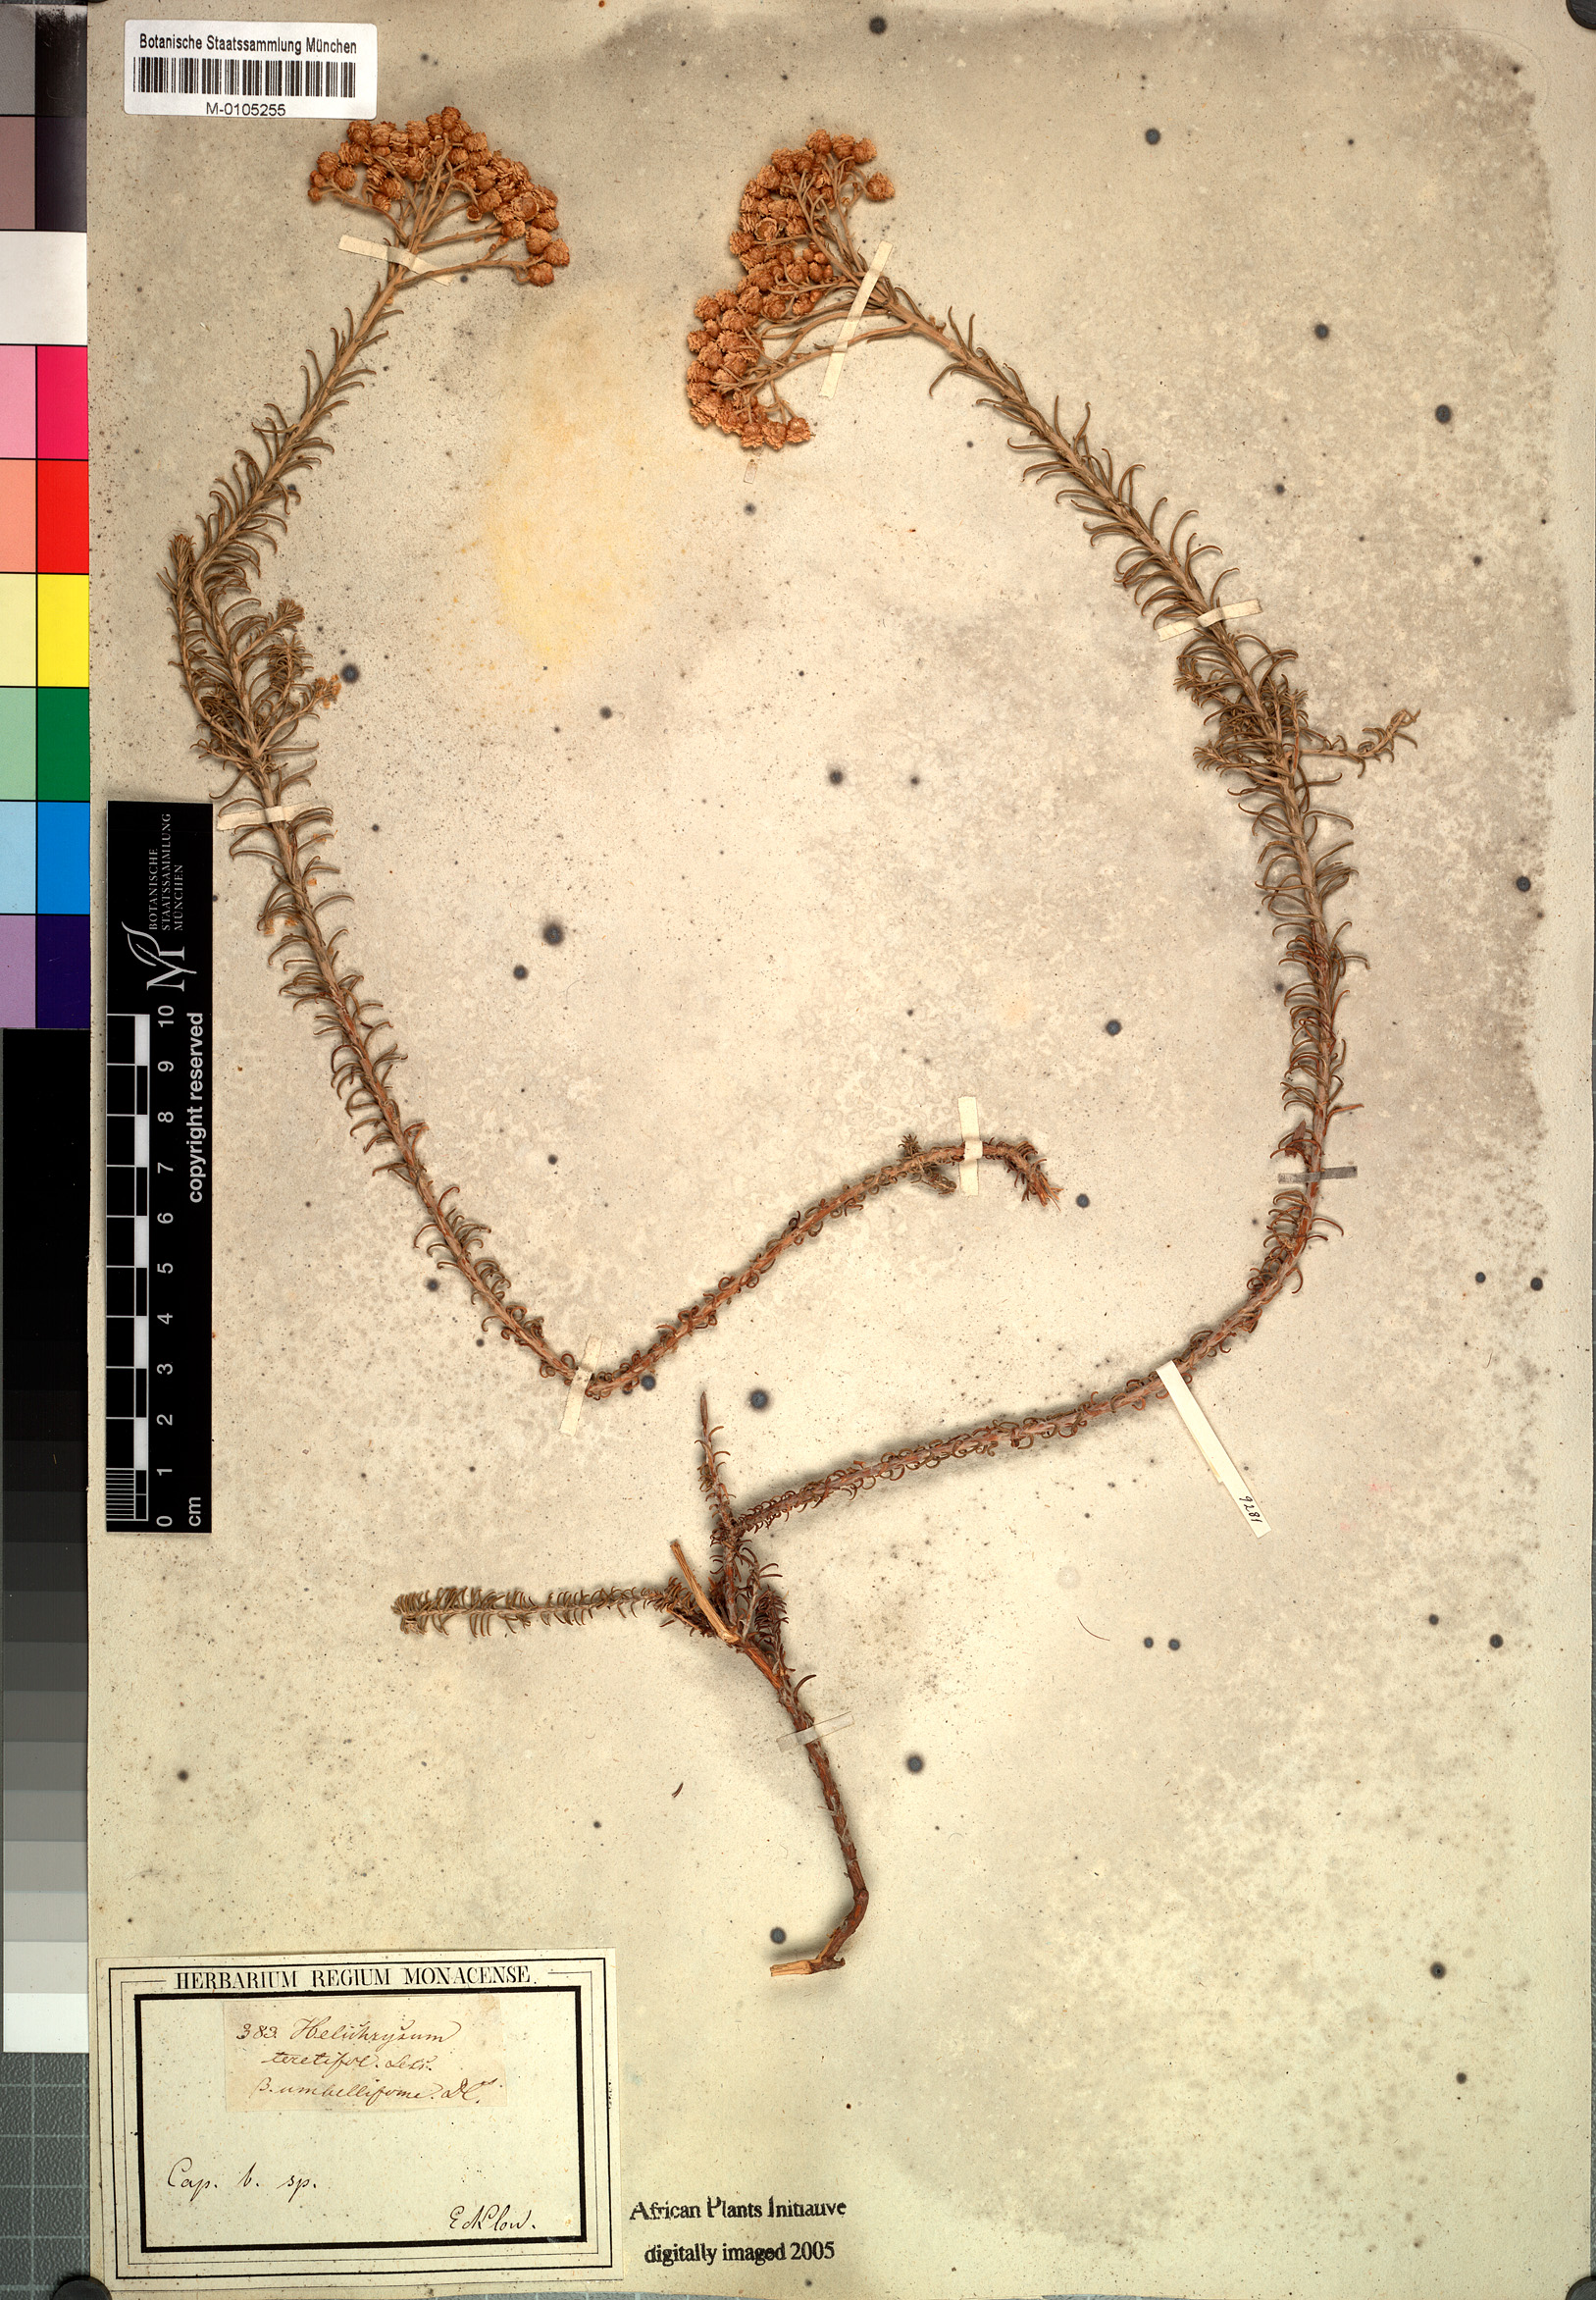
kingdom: Plantae
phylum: Tracheophyta
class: Magnoliopsida
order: Asterales
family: Asteraceae
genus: Helichrysum
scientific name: Helichrysum teretifolium
